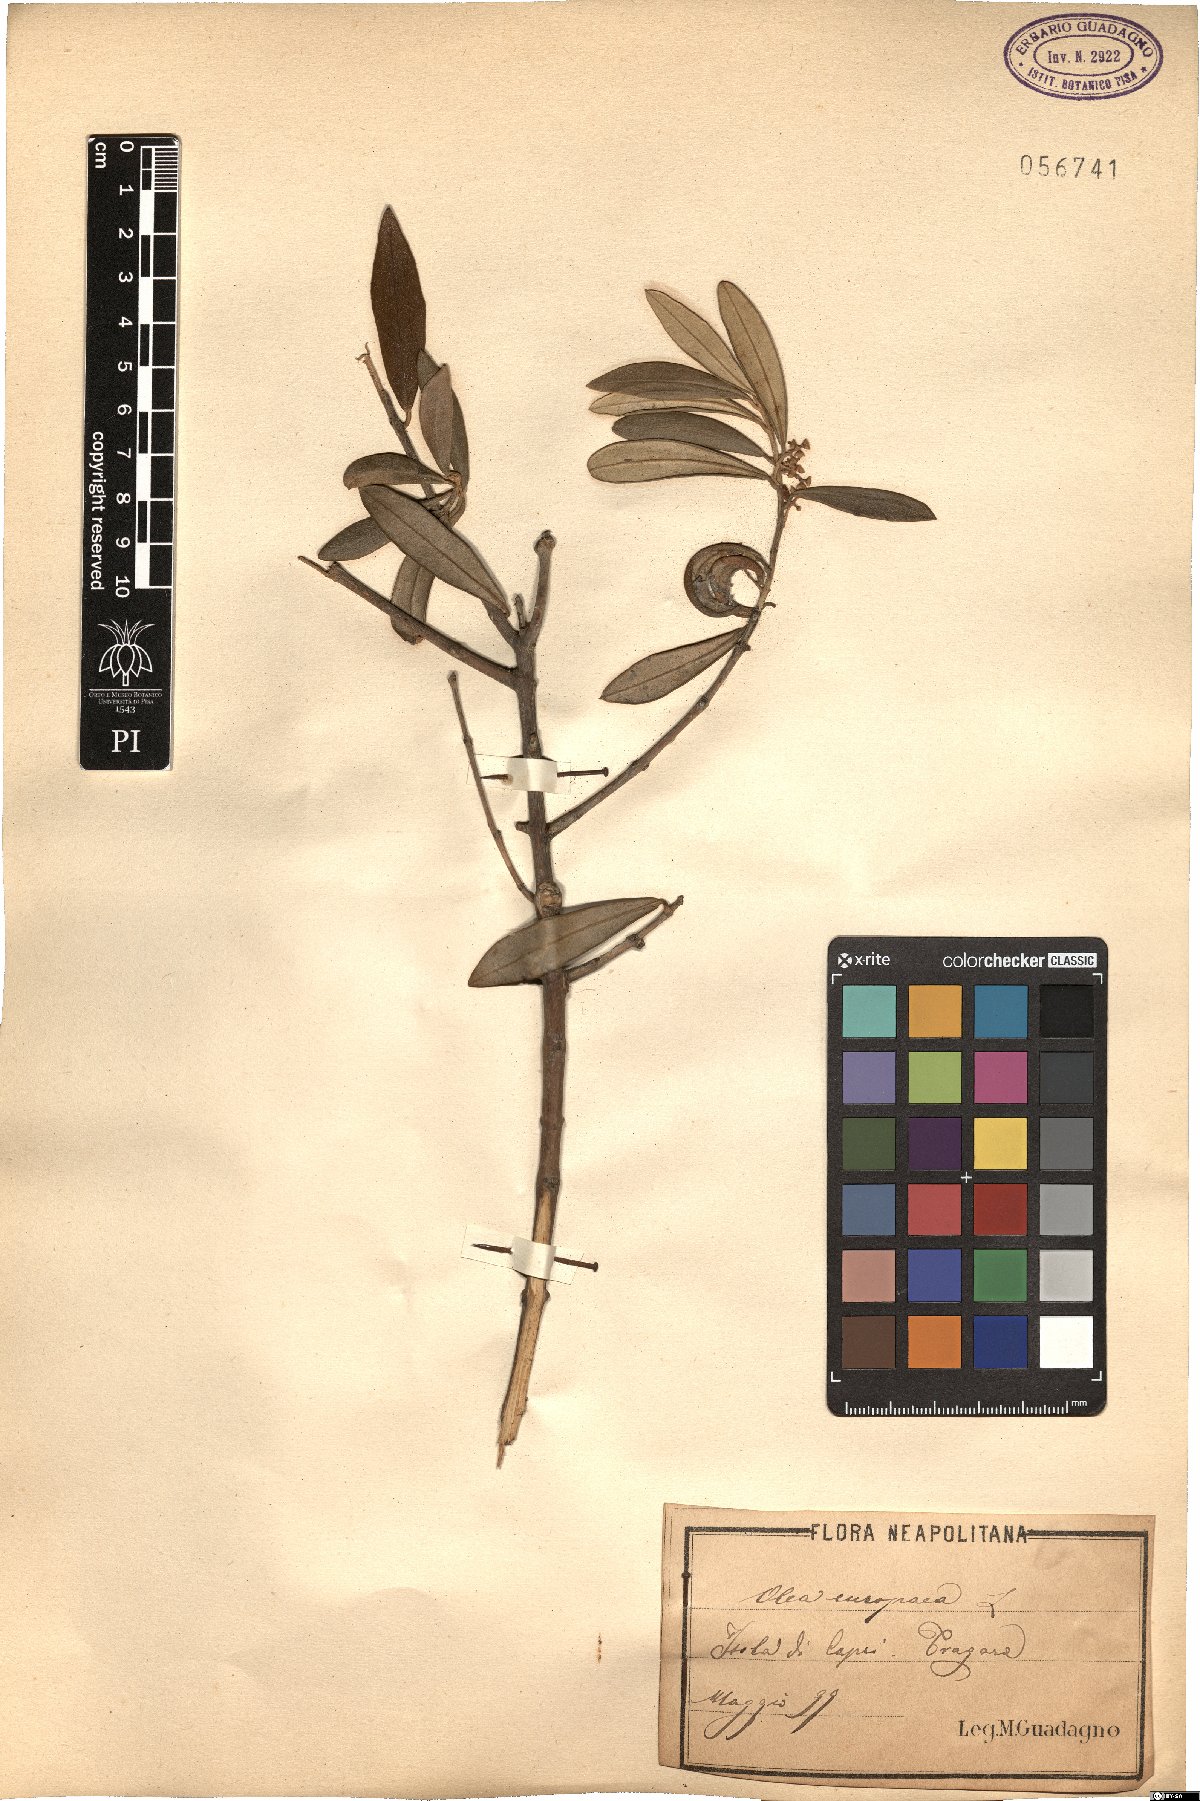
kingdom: Plantae
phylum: Tracheophyta
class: Magnoliopsida
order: Lamiales
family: Oleaceae
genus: Olea
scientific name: Olea europaea
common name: Olive
